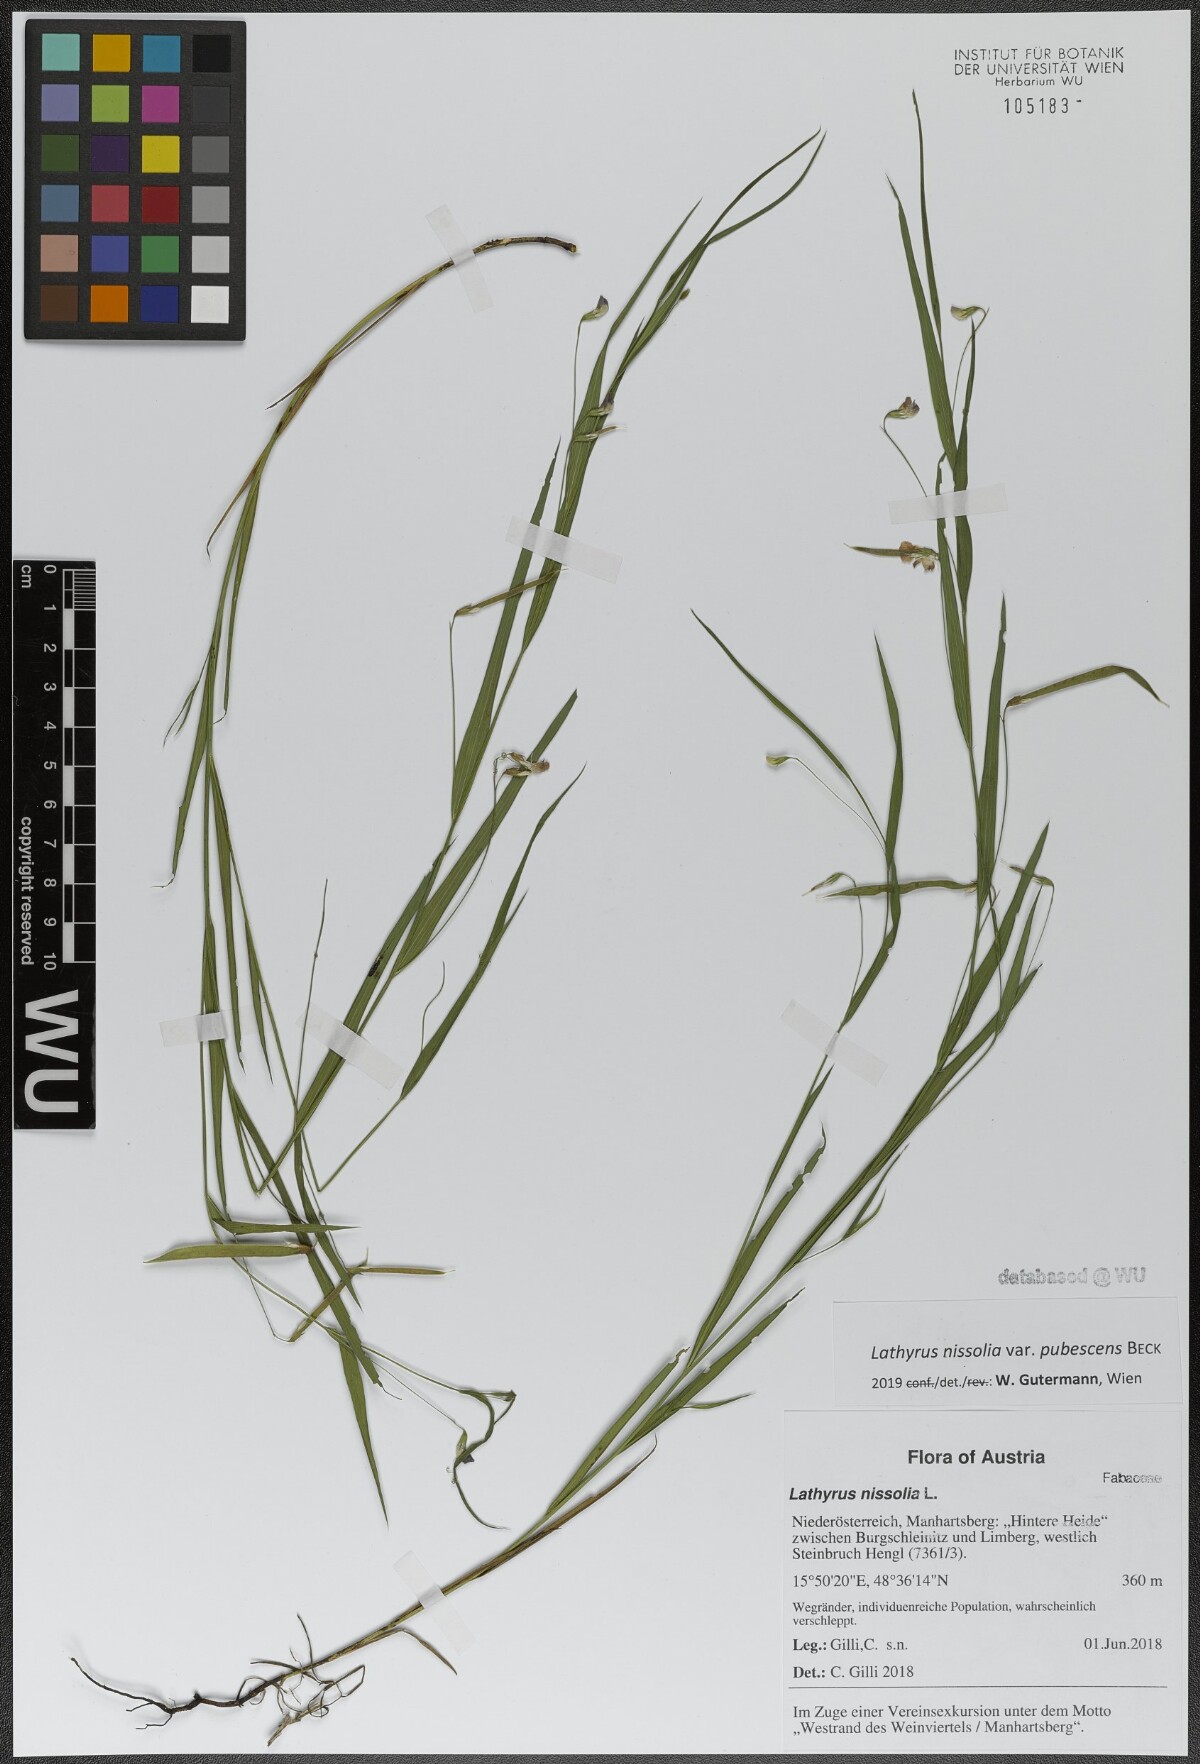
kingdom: Plantae
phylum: Tracheophyta
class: Magnoliopsida
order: Fabales
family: Fabaceae
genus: Lathyrus
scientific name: Lathyrus nissolia
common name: Grass vetchling
